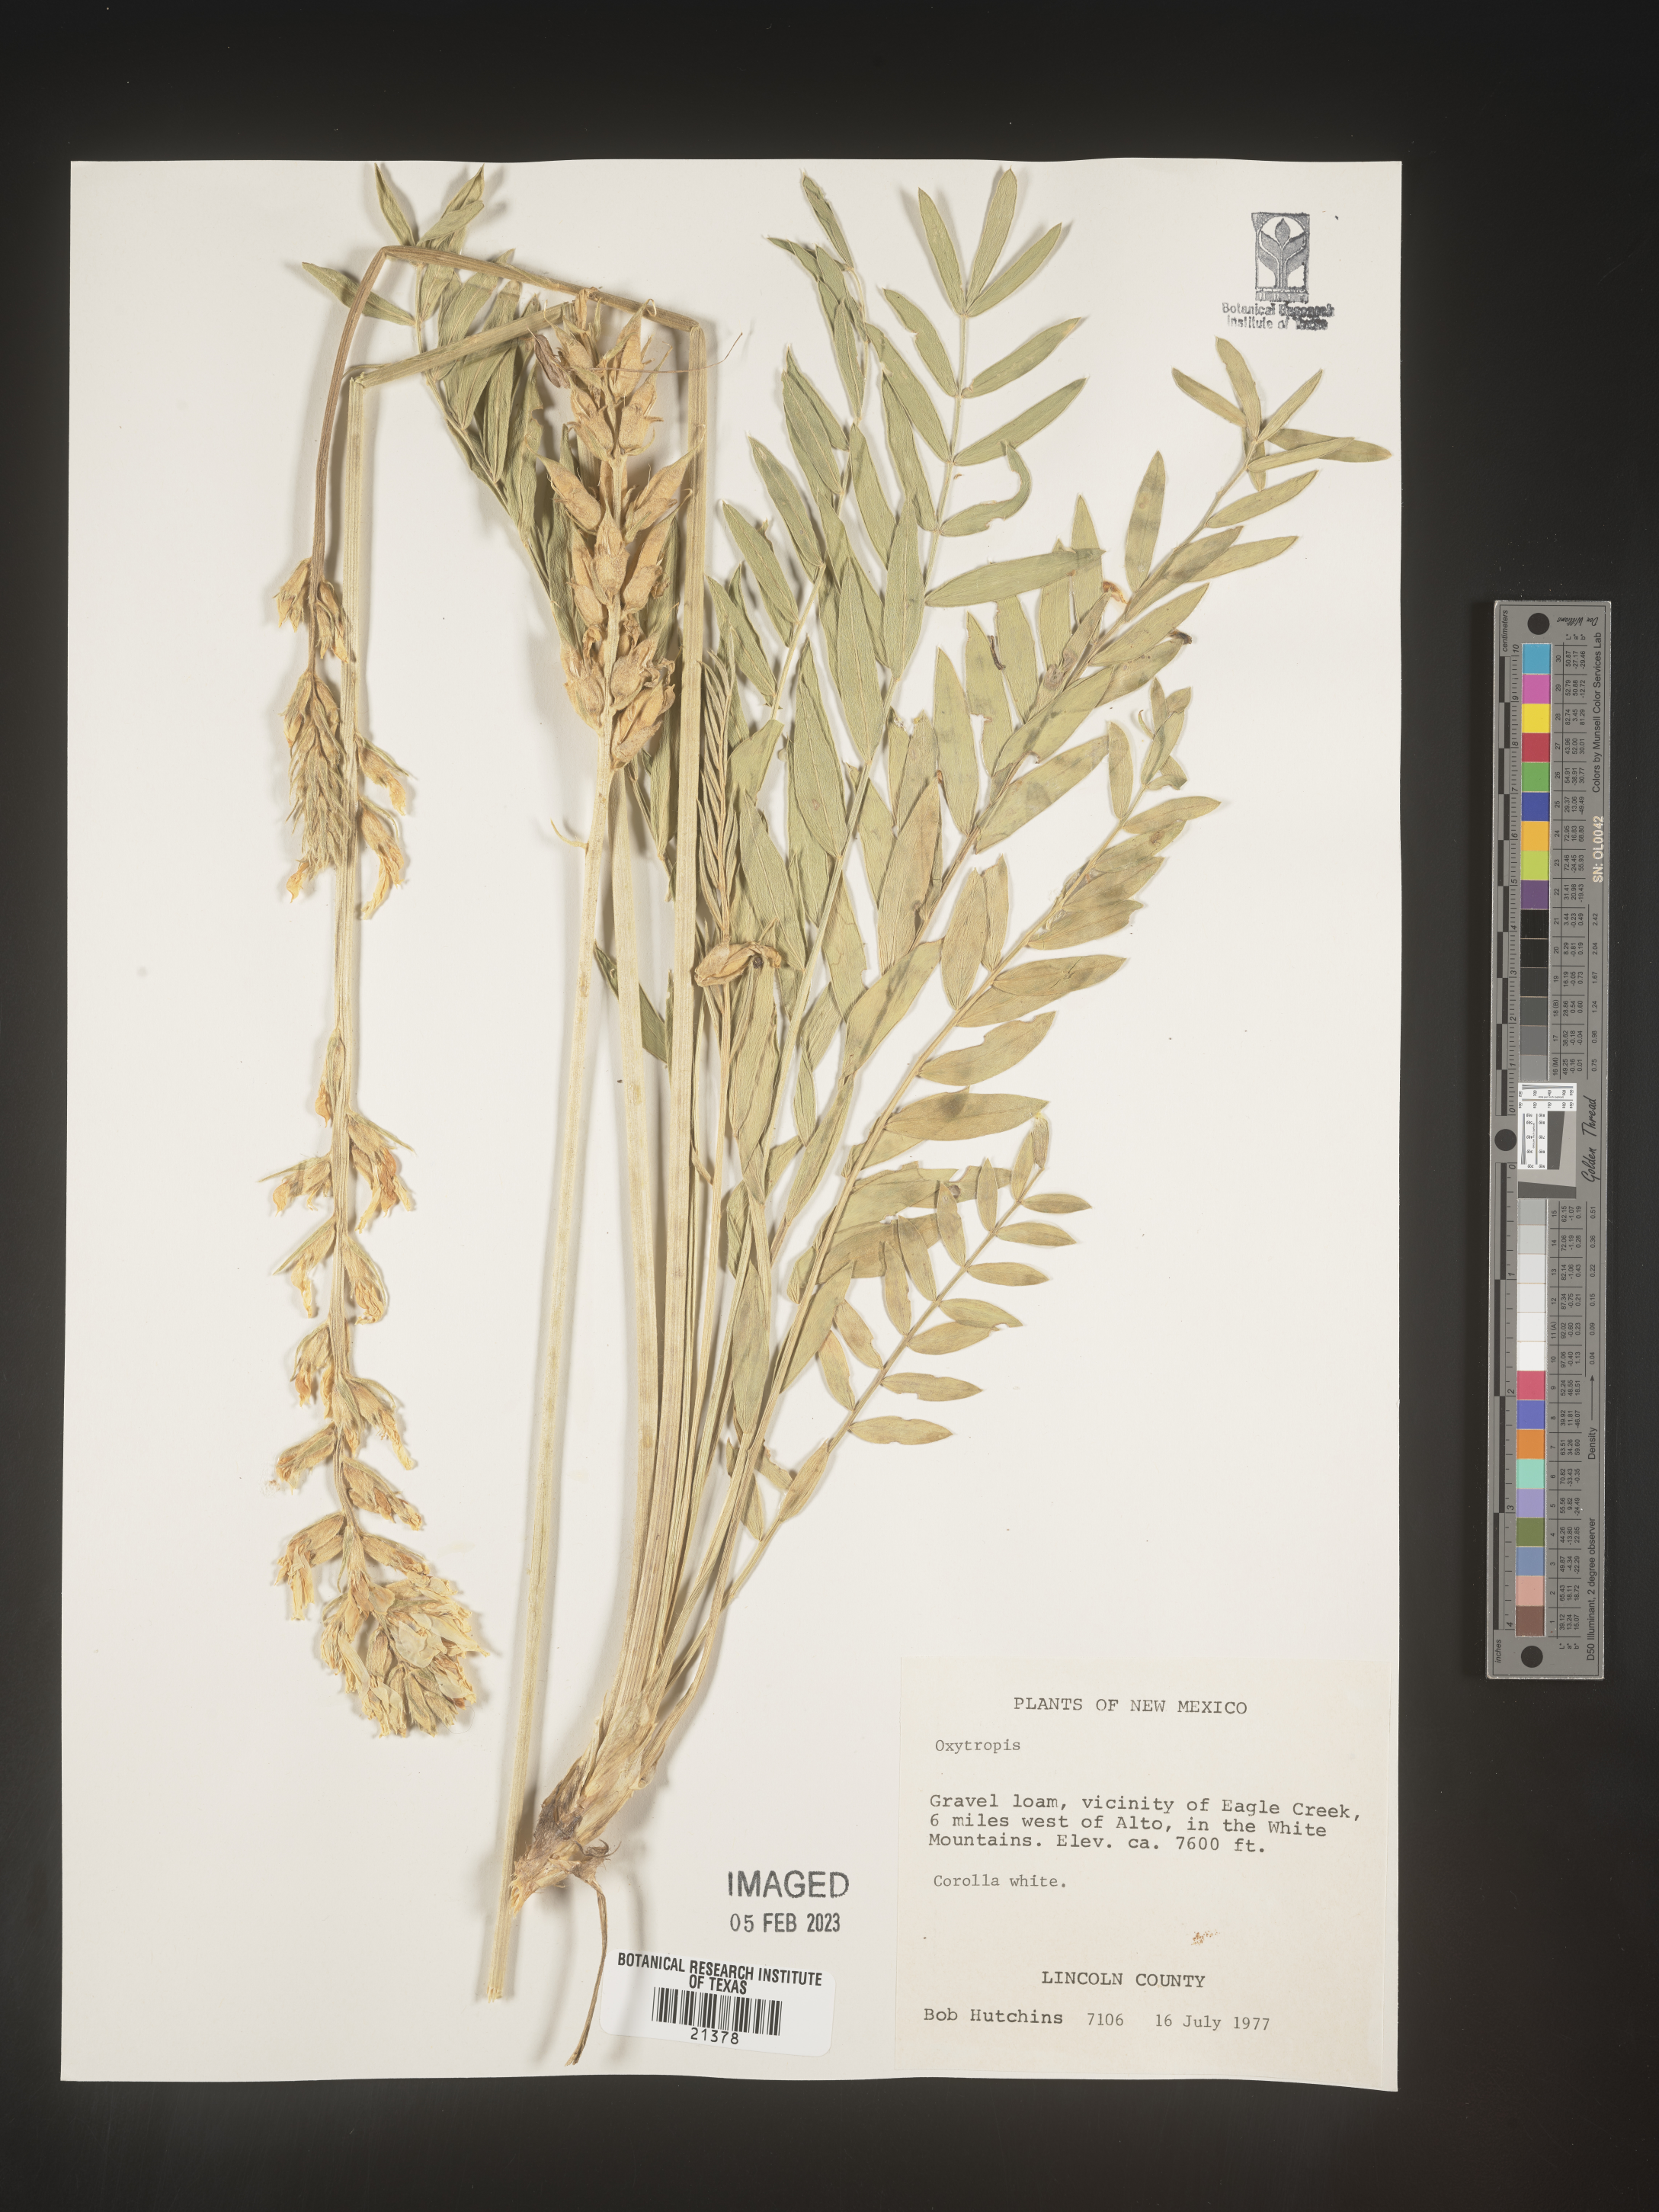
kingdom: Plantae
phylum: Tracheophyta
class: Magnoliopsida
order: Fabales
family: Fabaceae
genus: Oxytropis
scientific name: Oxytropis
